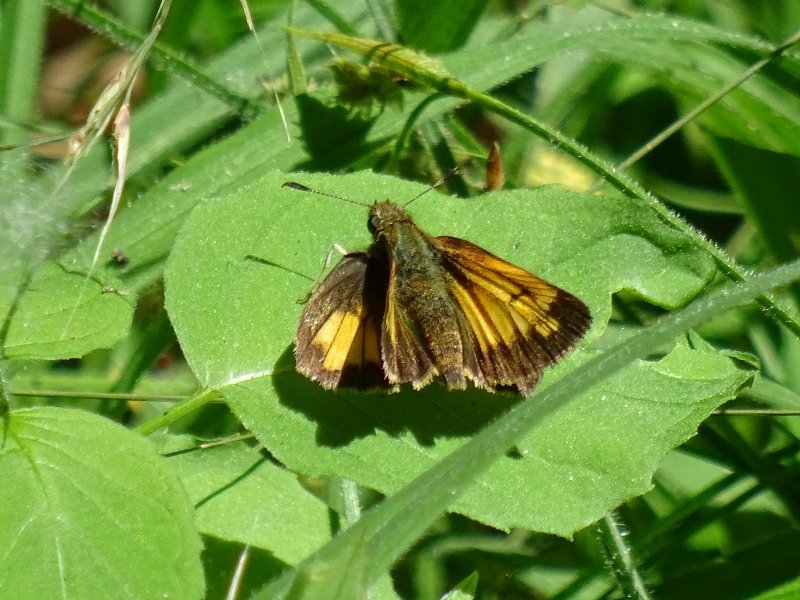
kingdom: Animalia
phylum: Arthropoda
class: Insecta
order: Lepidoptera
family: Hesperiidae
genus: Lon
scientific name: Lon hobomok
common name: Hobomok Skipper
